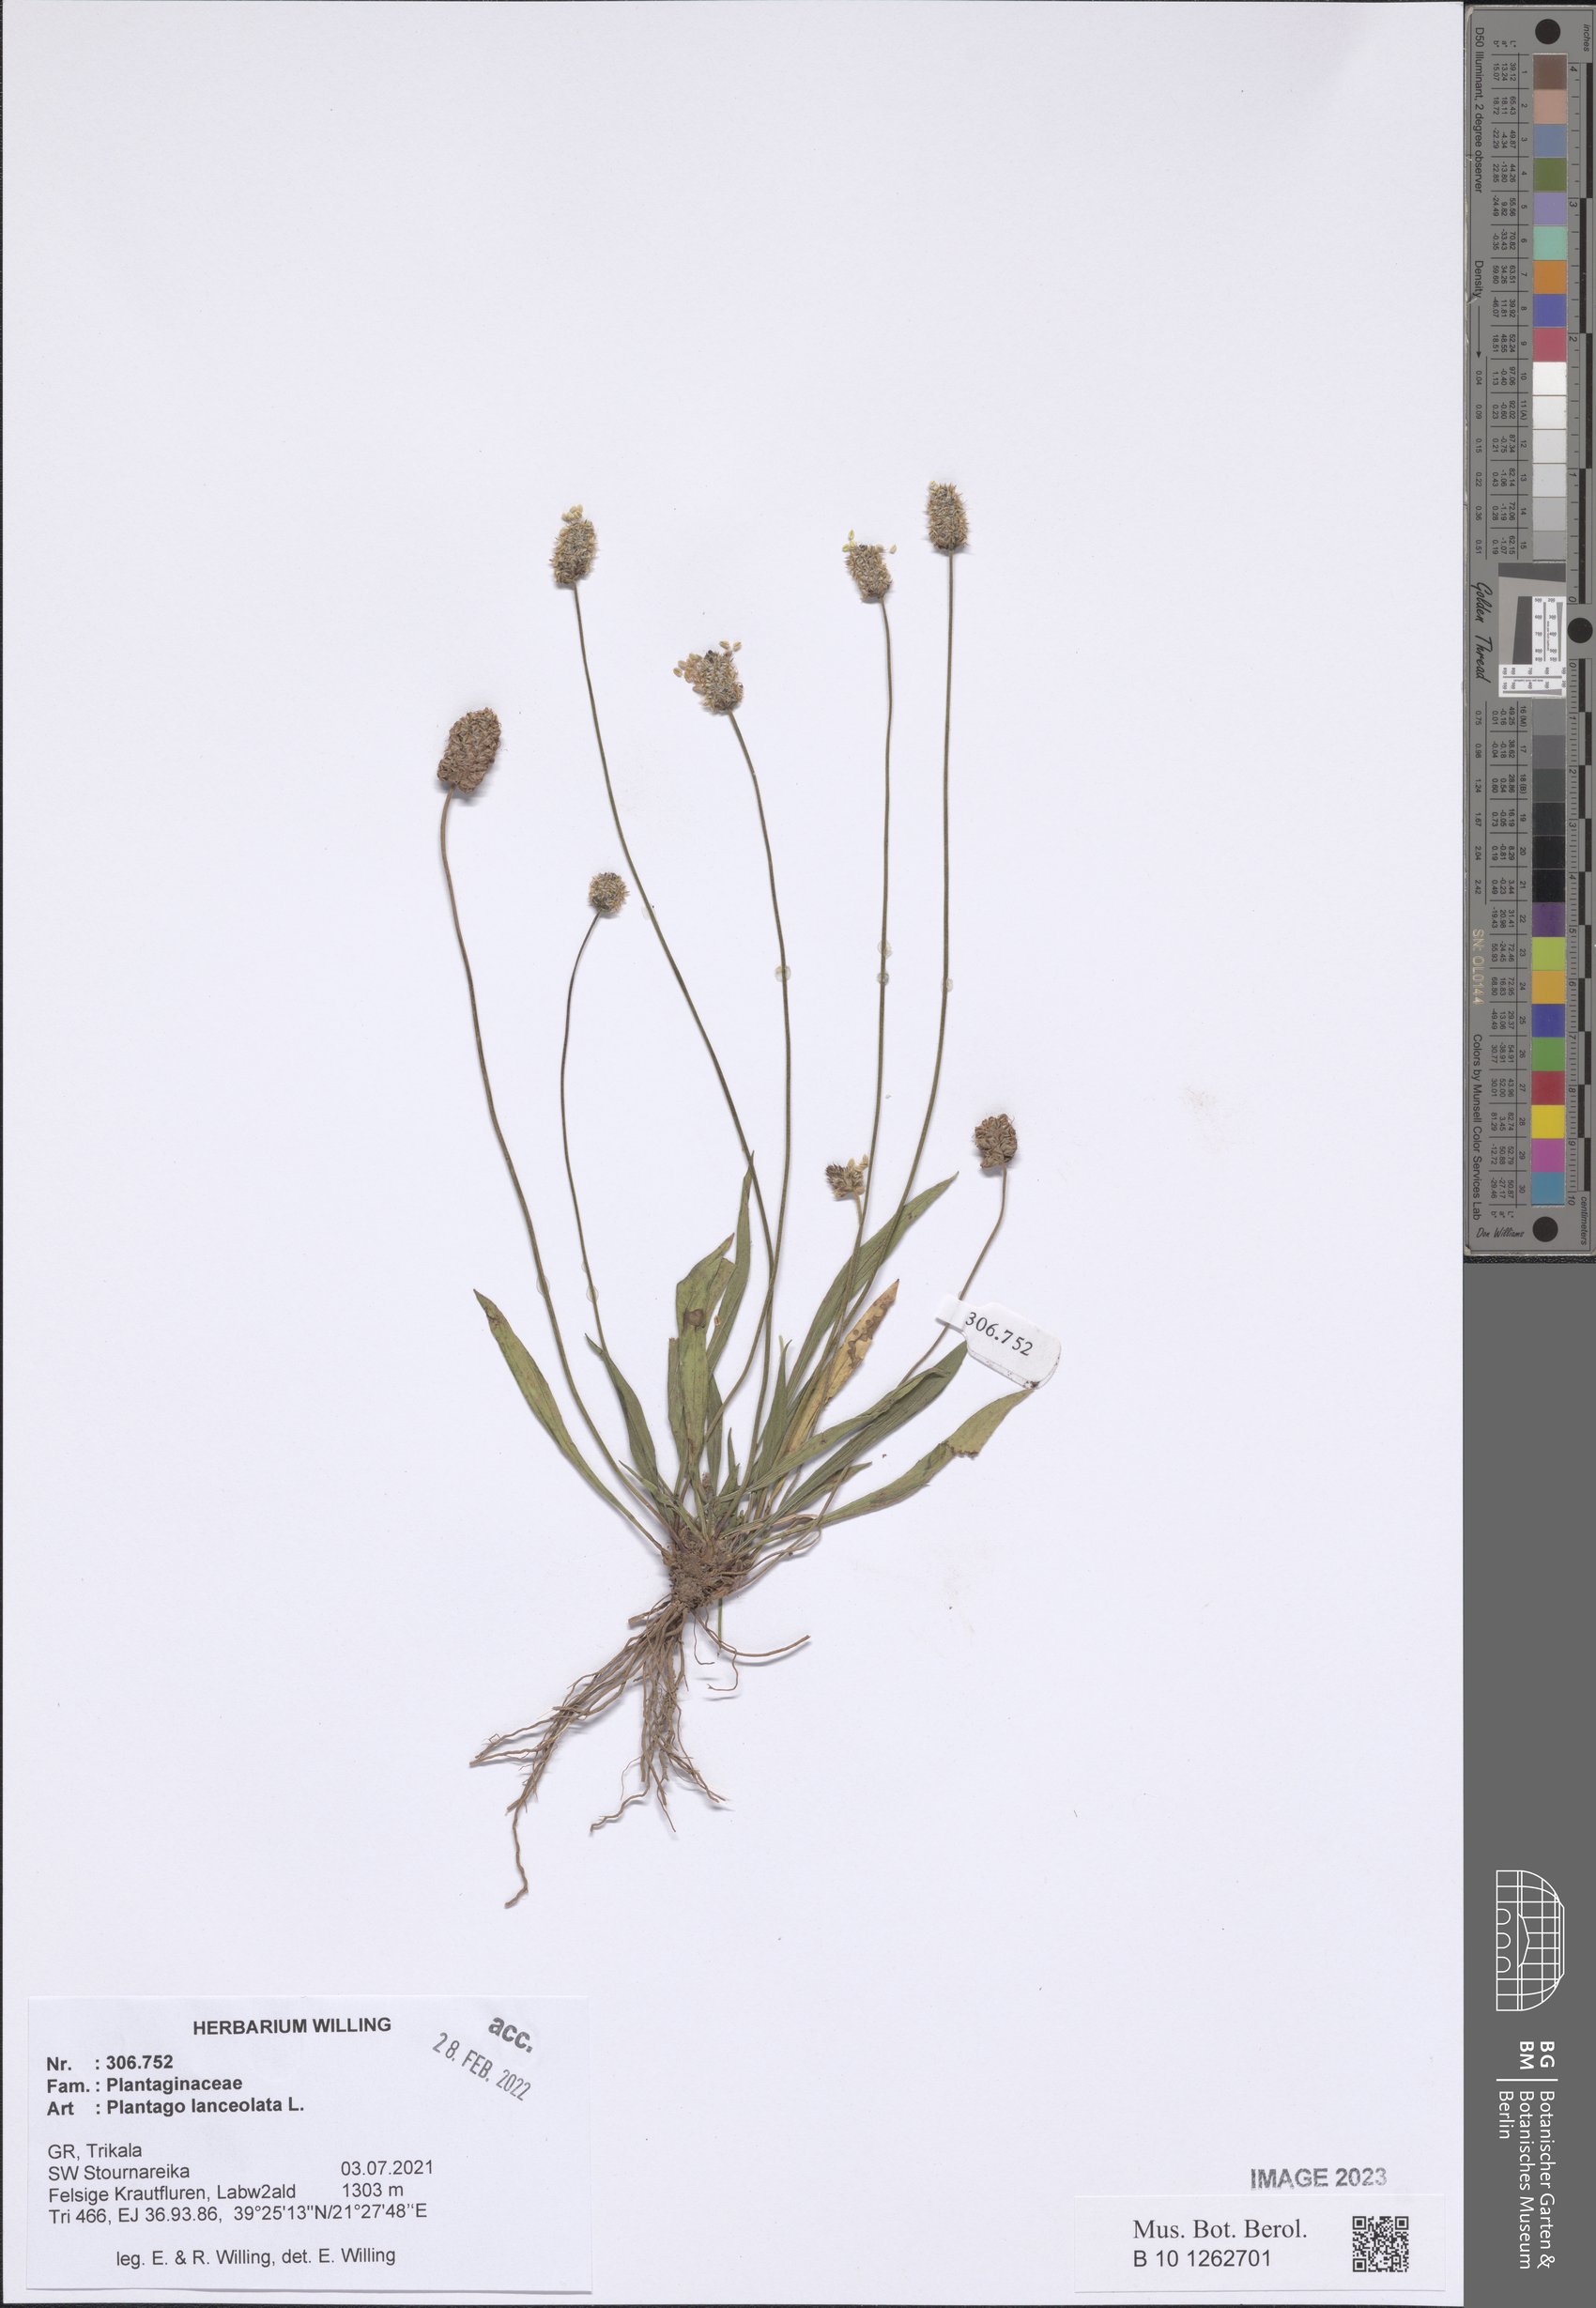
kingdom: Plantae
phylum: Tracheophyta
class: Magnoliopsida
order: Lamiales
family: Plantaginaceae
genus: Plantago
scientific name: Plantago lanceolata
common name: Ribwort plantain
